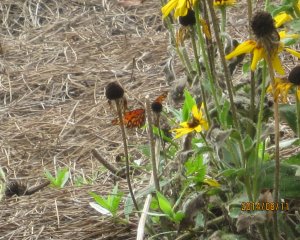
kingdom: Animalia
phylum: Arthropoda
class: Insecta
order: Lepidoptera
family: Nymphalidae
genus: Dione
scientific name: Dione vanillae
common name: Gulf Fritillary
